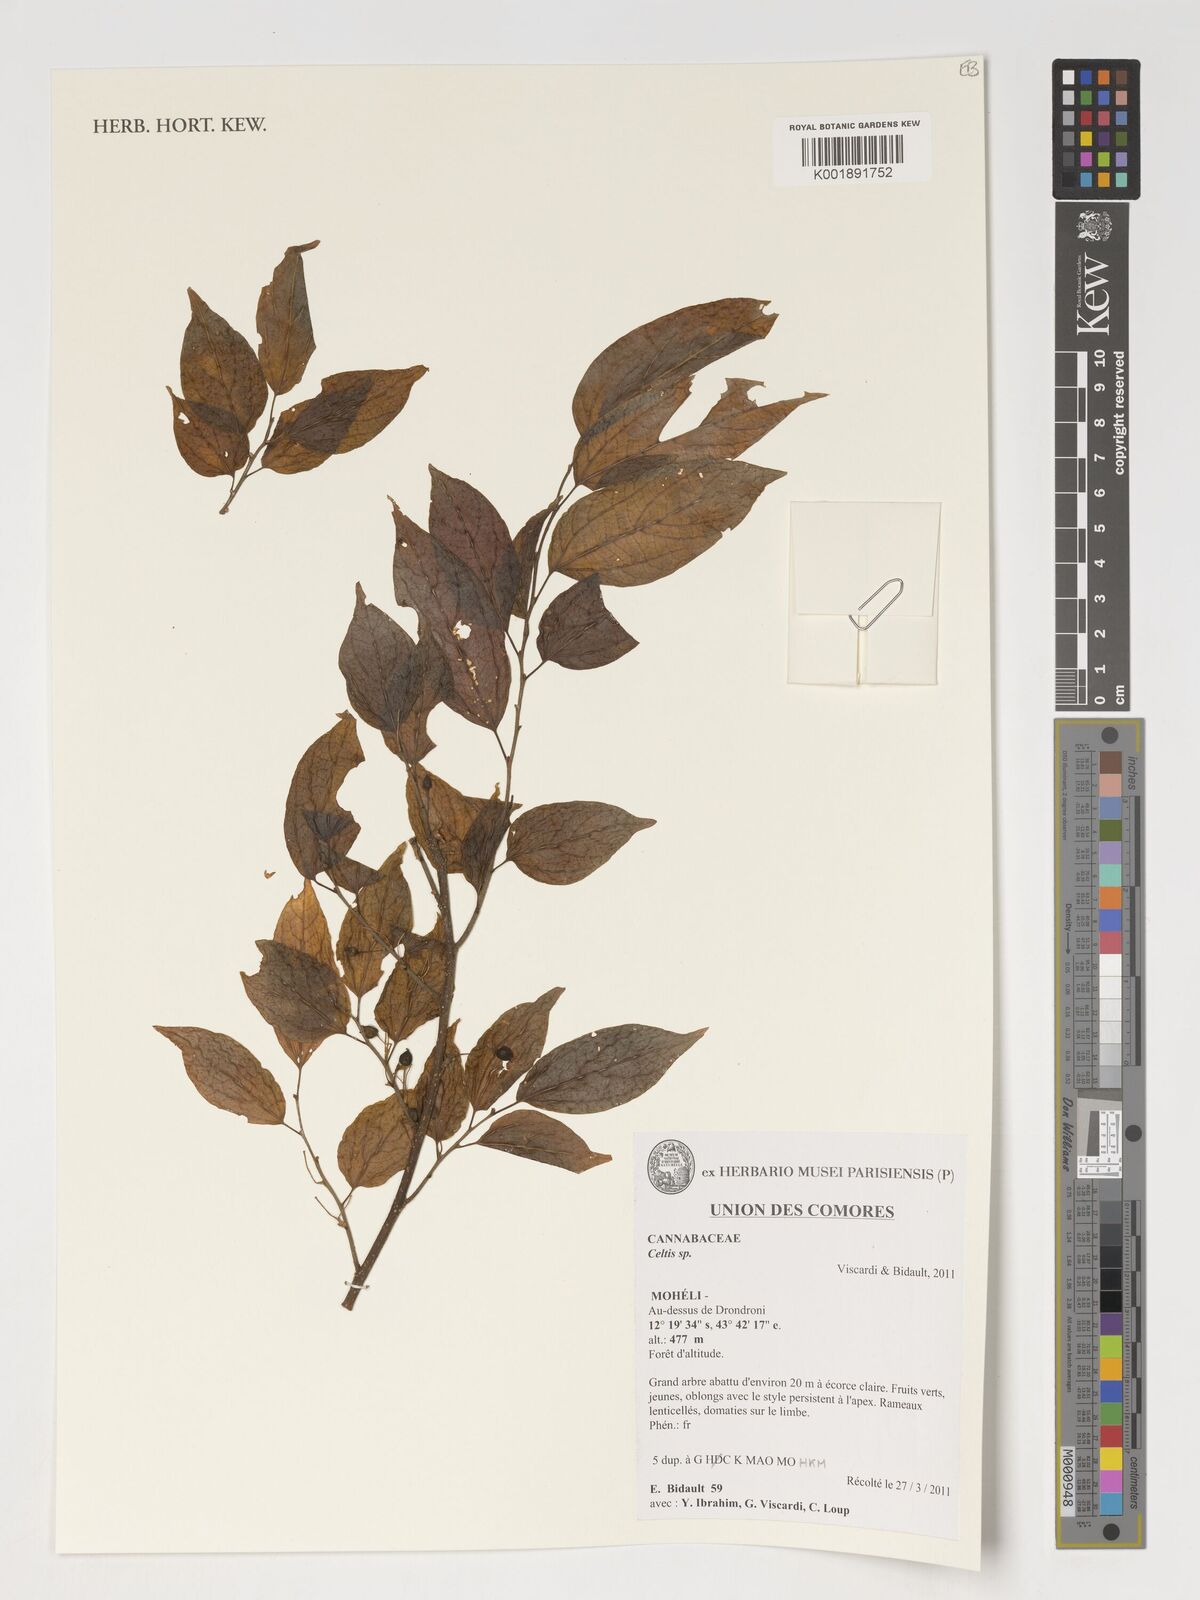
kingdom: Plantae
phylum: Tracheophyta
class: Magnoliopsida
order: Rosales
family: Cannabaceae
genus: Celtis
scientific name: Celtis
